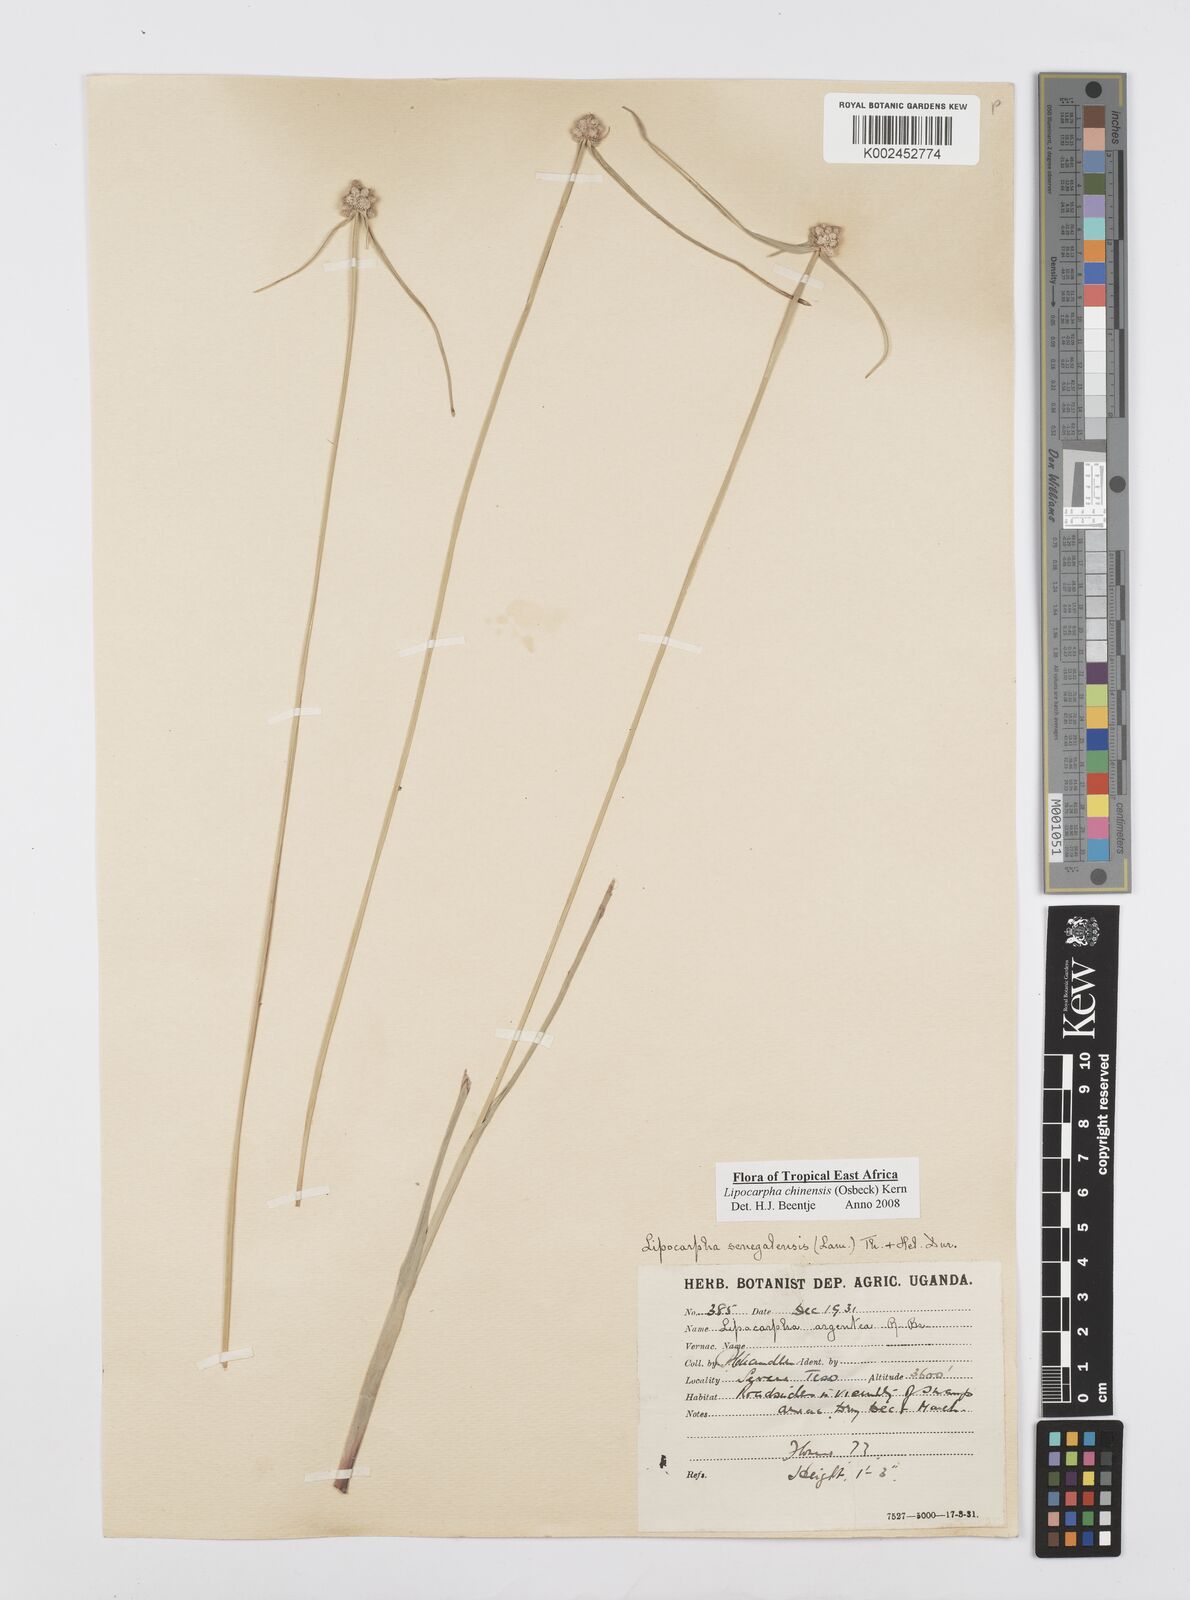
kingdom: Plantae
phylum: Tracheophyta
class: Liliopsida
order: Poales
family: Cyperaceae
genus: Cyperus
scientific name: Cyperus albescens
